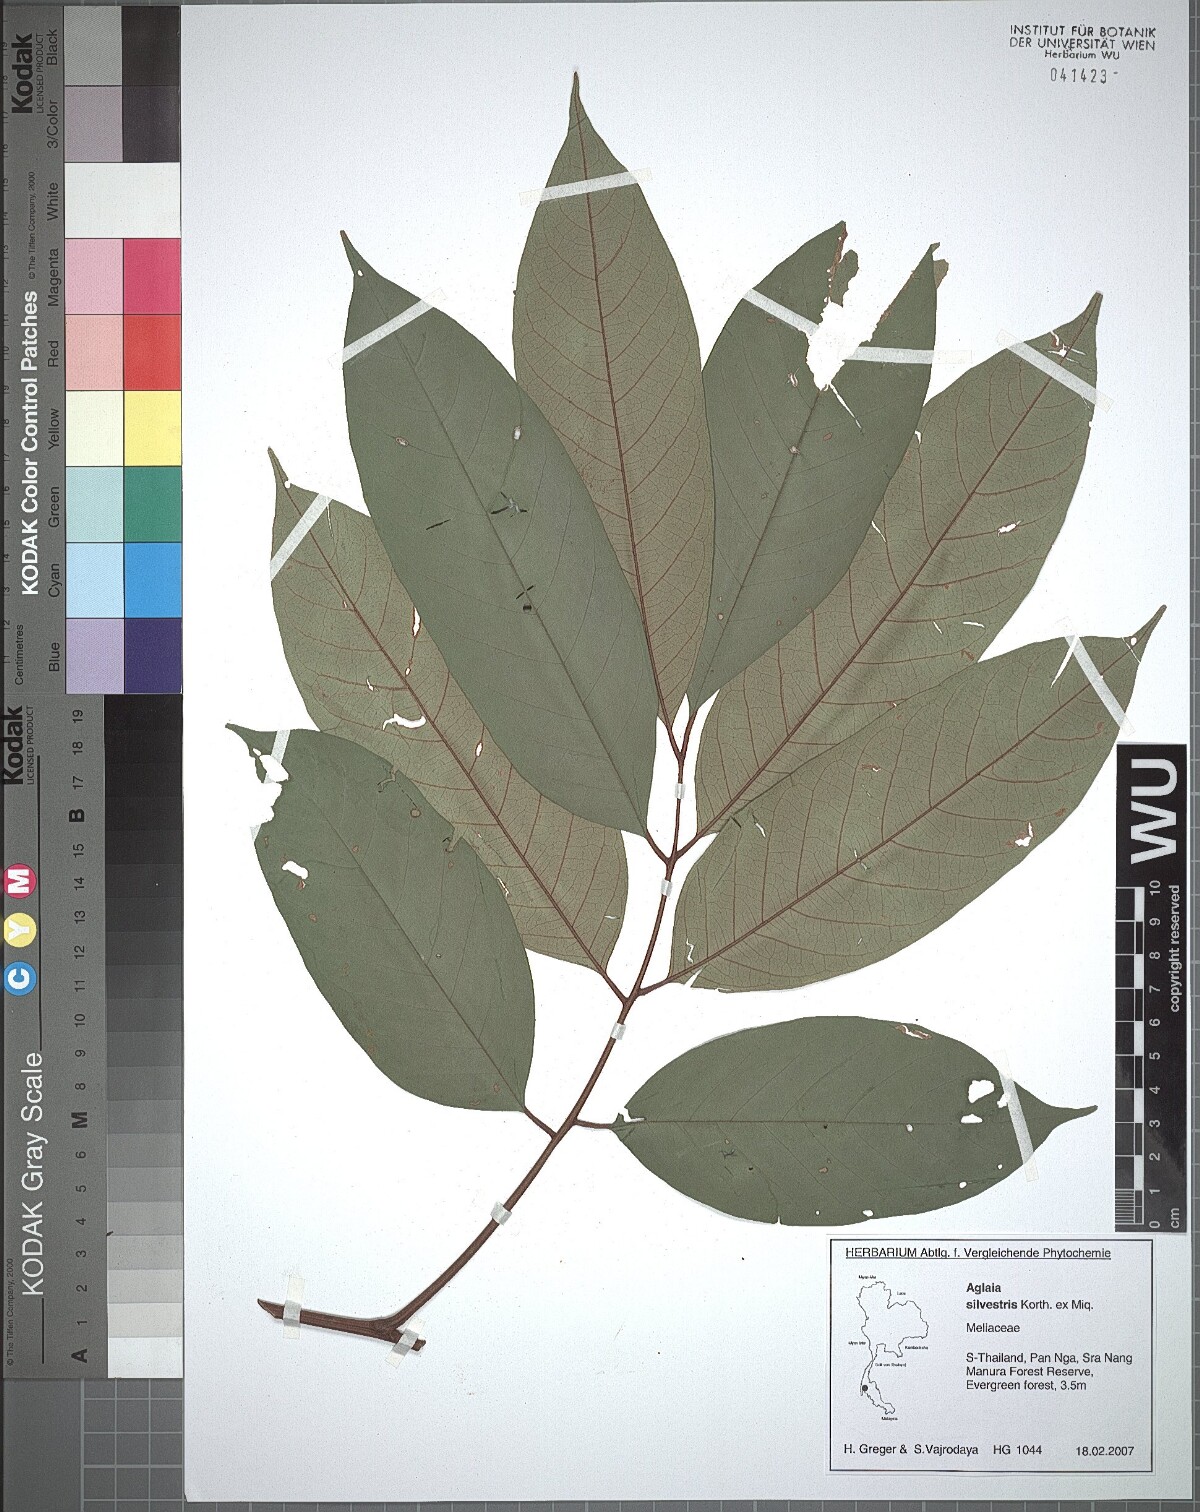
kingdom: Plantae
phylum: Tracheophyta
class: Magnoliopsida
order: Sapindales
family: Meliaceae
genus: Aglaia
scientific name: Aglaia silvestris
